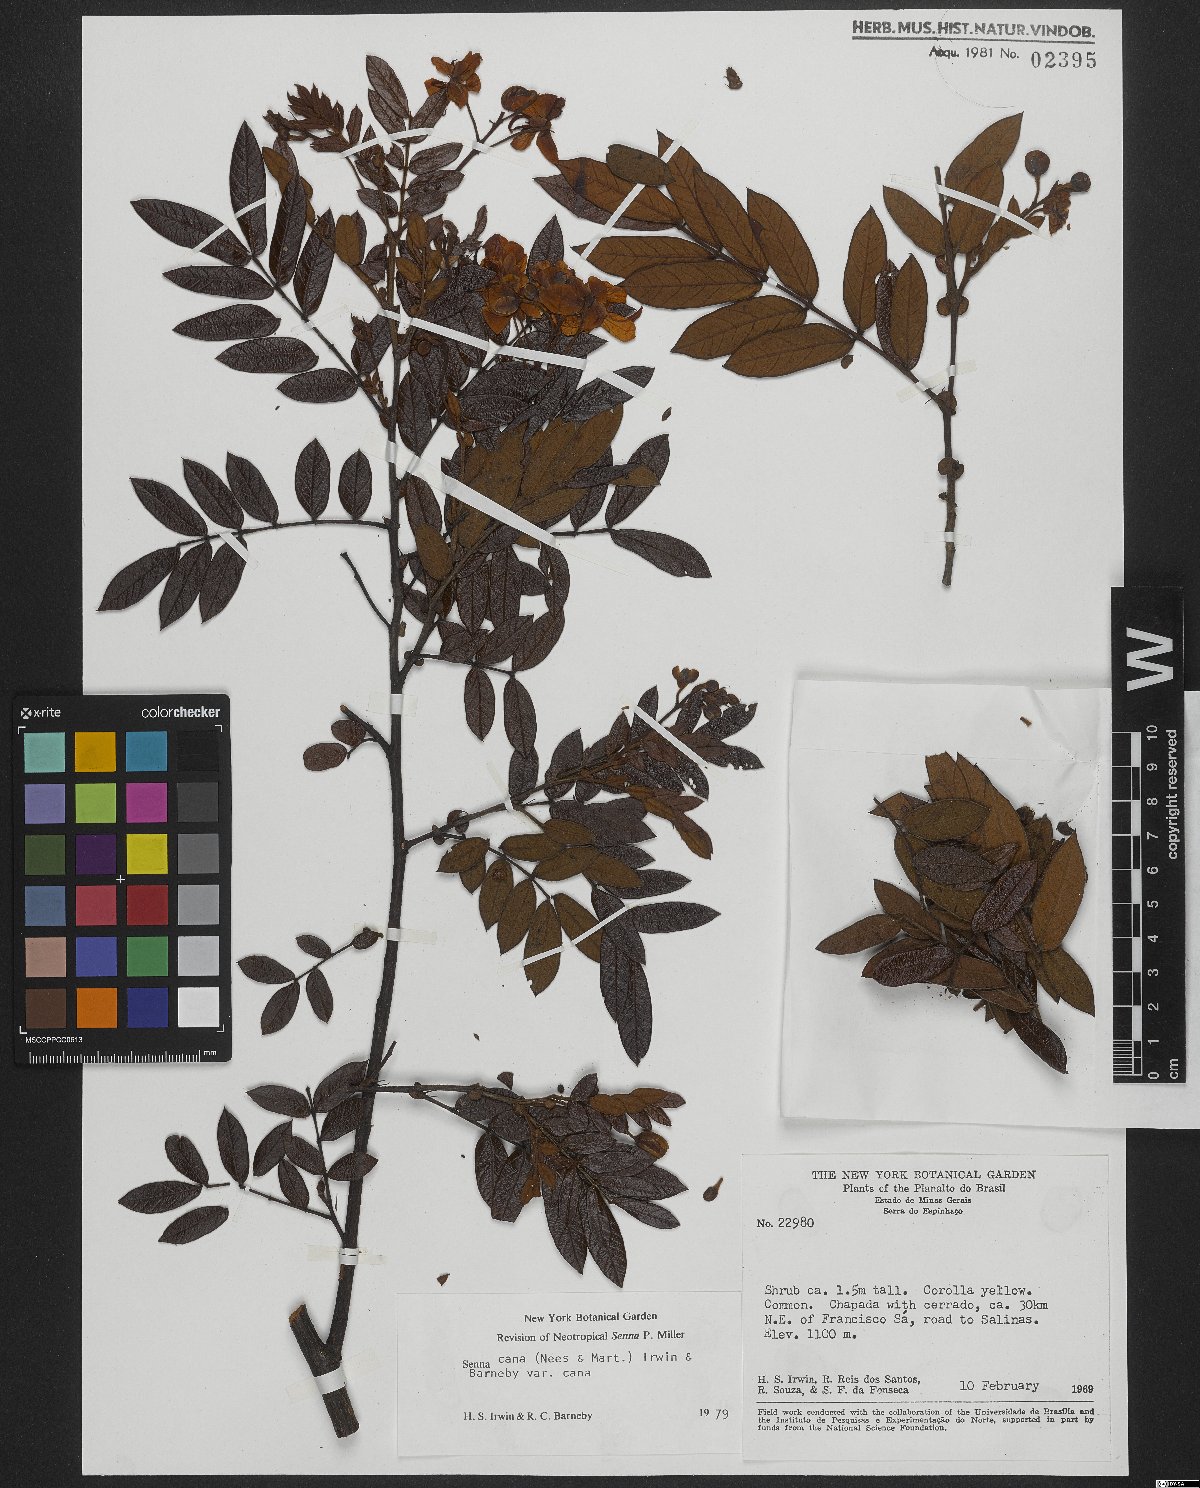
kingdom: Plantae
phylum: Tracheophyta
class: Magnoliopsida
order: Fabales
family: Fabaceae
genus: Senna
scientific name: Senna cana
